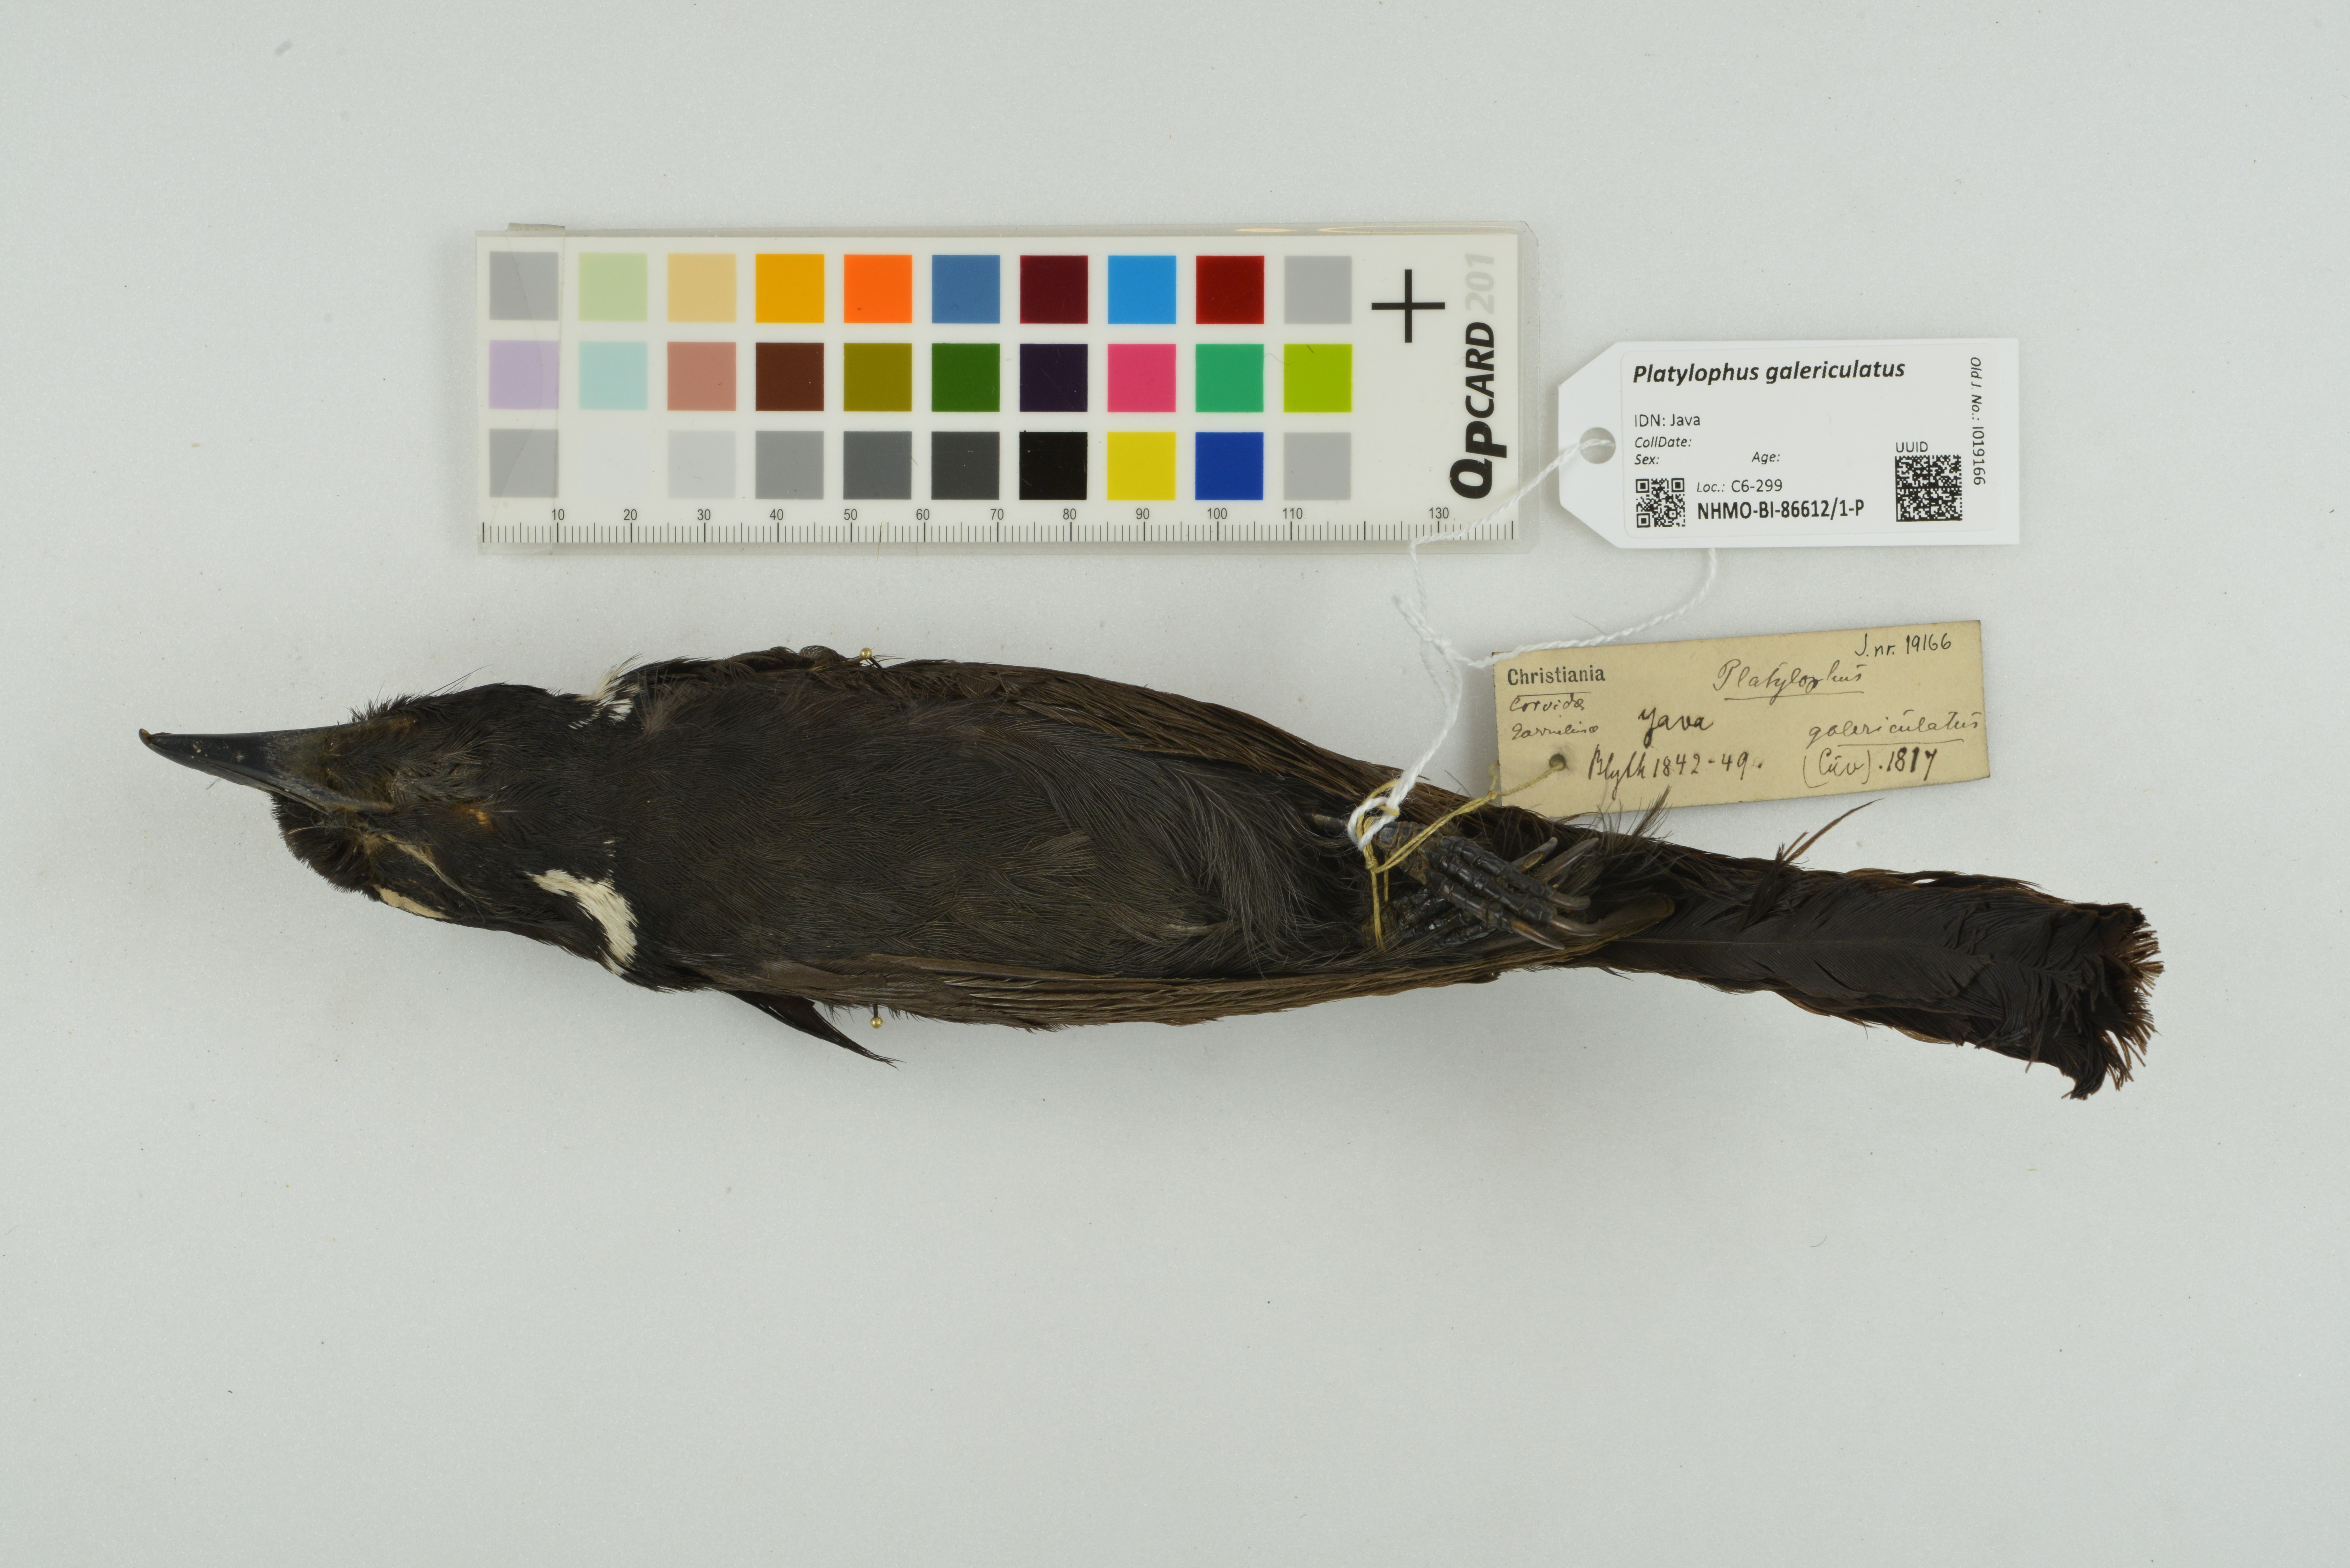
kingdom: Animalia
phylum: Chordata
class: Aves
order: Passeriformes
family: Corvidae
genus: Platylophus
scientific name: Platylophus galericulatus
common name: Crested jay
